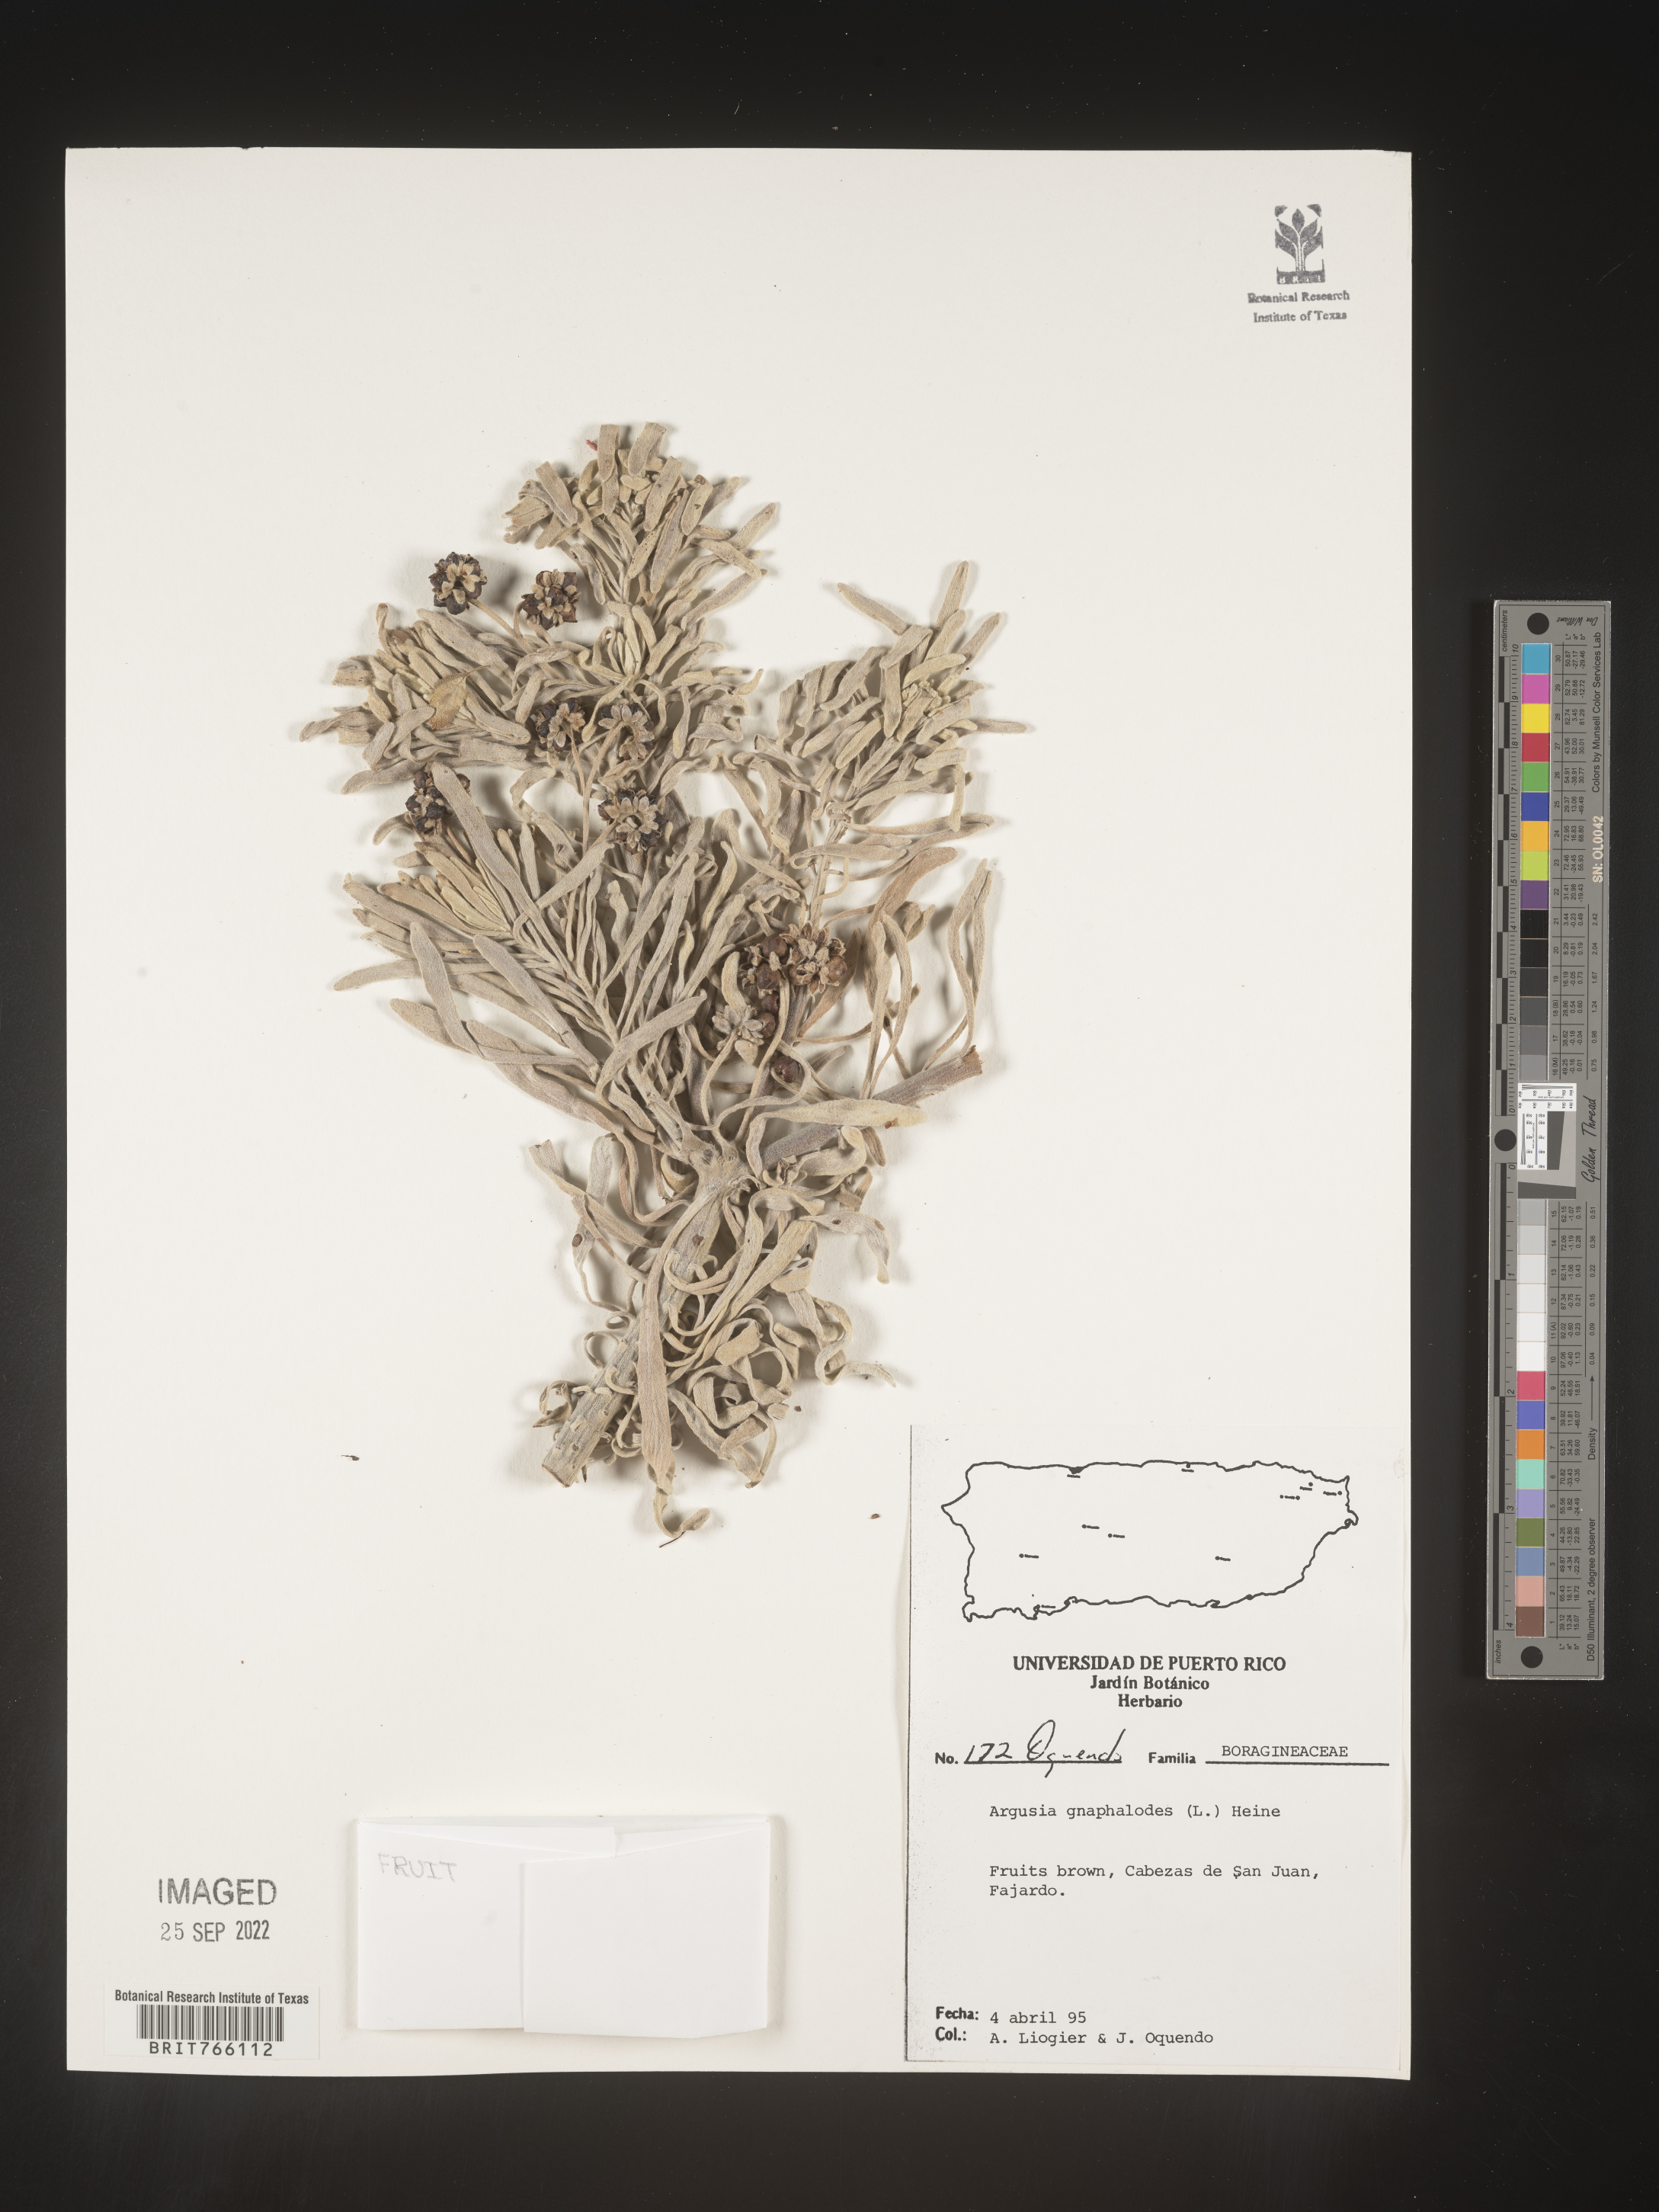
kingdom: Plantae
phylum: Tracheophyta
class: Magnoliopsida
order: Boraginales
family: Heliotropiaceae
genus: Tournefortia
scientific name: Tournefortia
